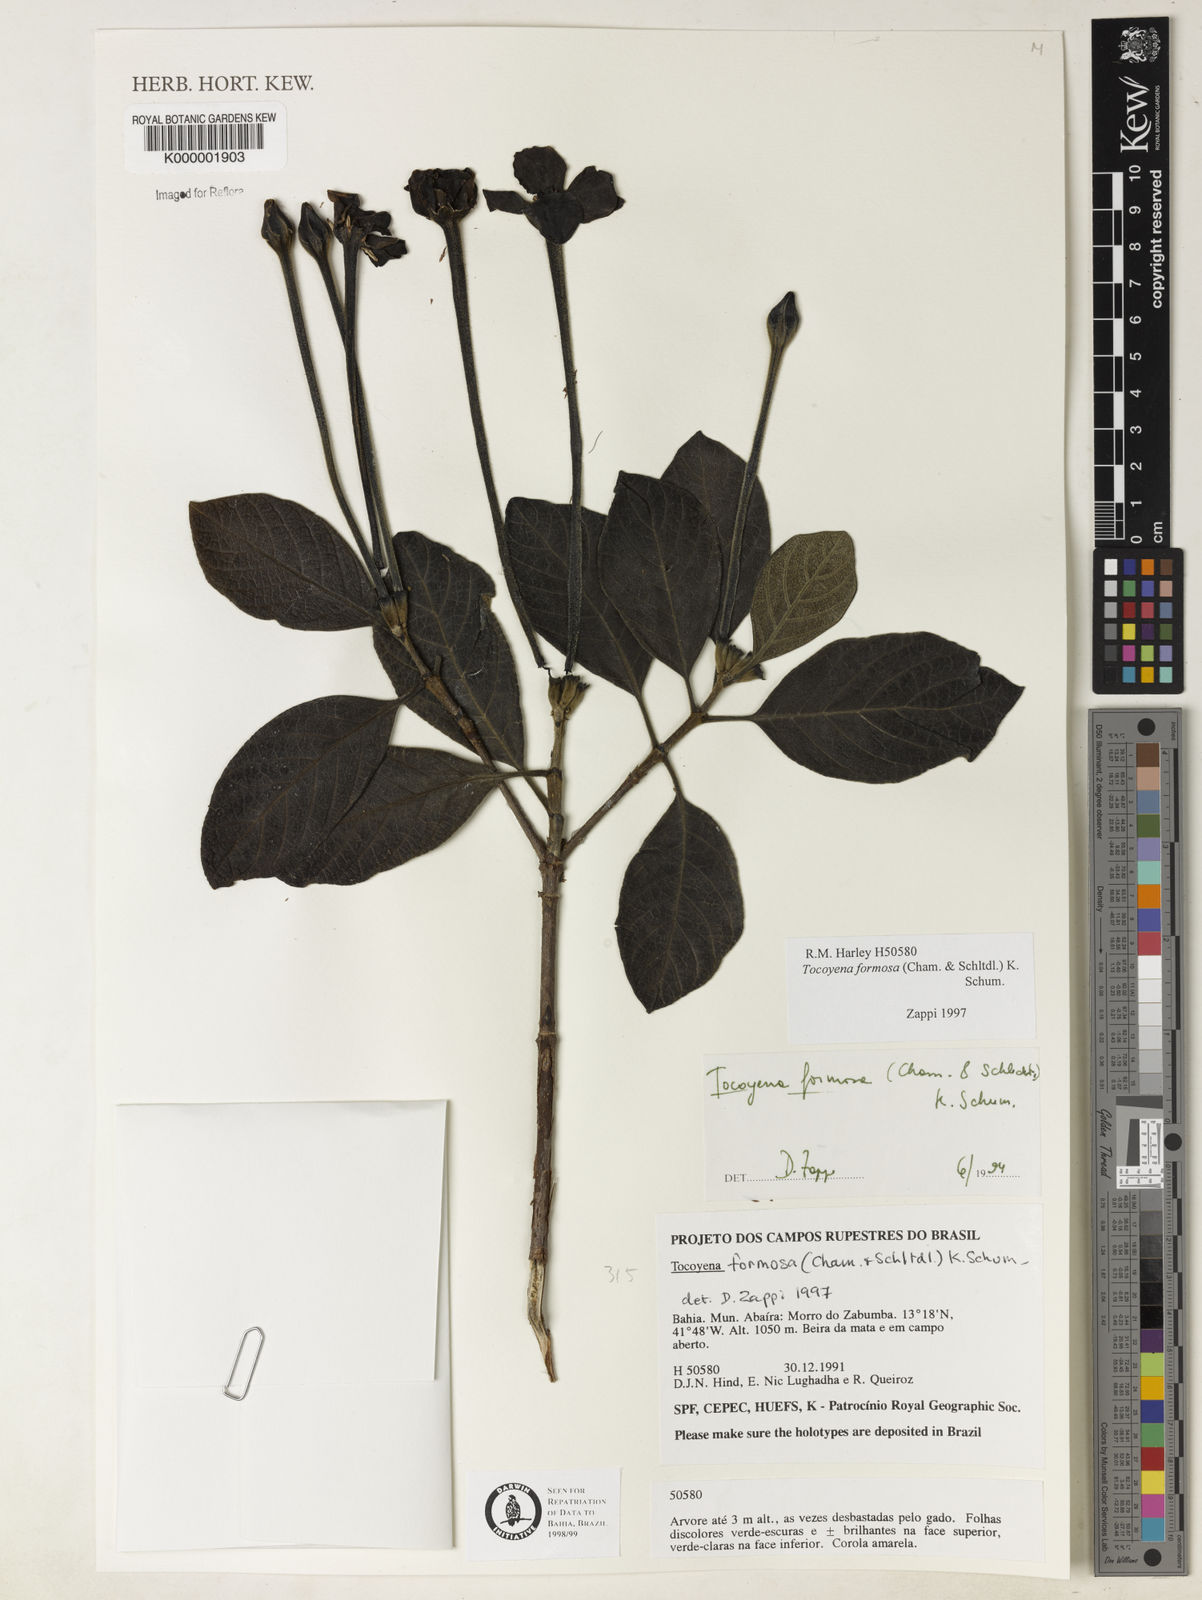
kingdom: Plantae
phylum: Tracheophyta
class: Magnoliopsida
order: Gentianales
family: Rubiaceae
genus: Tocoyena
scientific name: Tocoyena formosa
